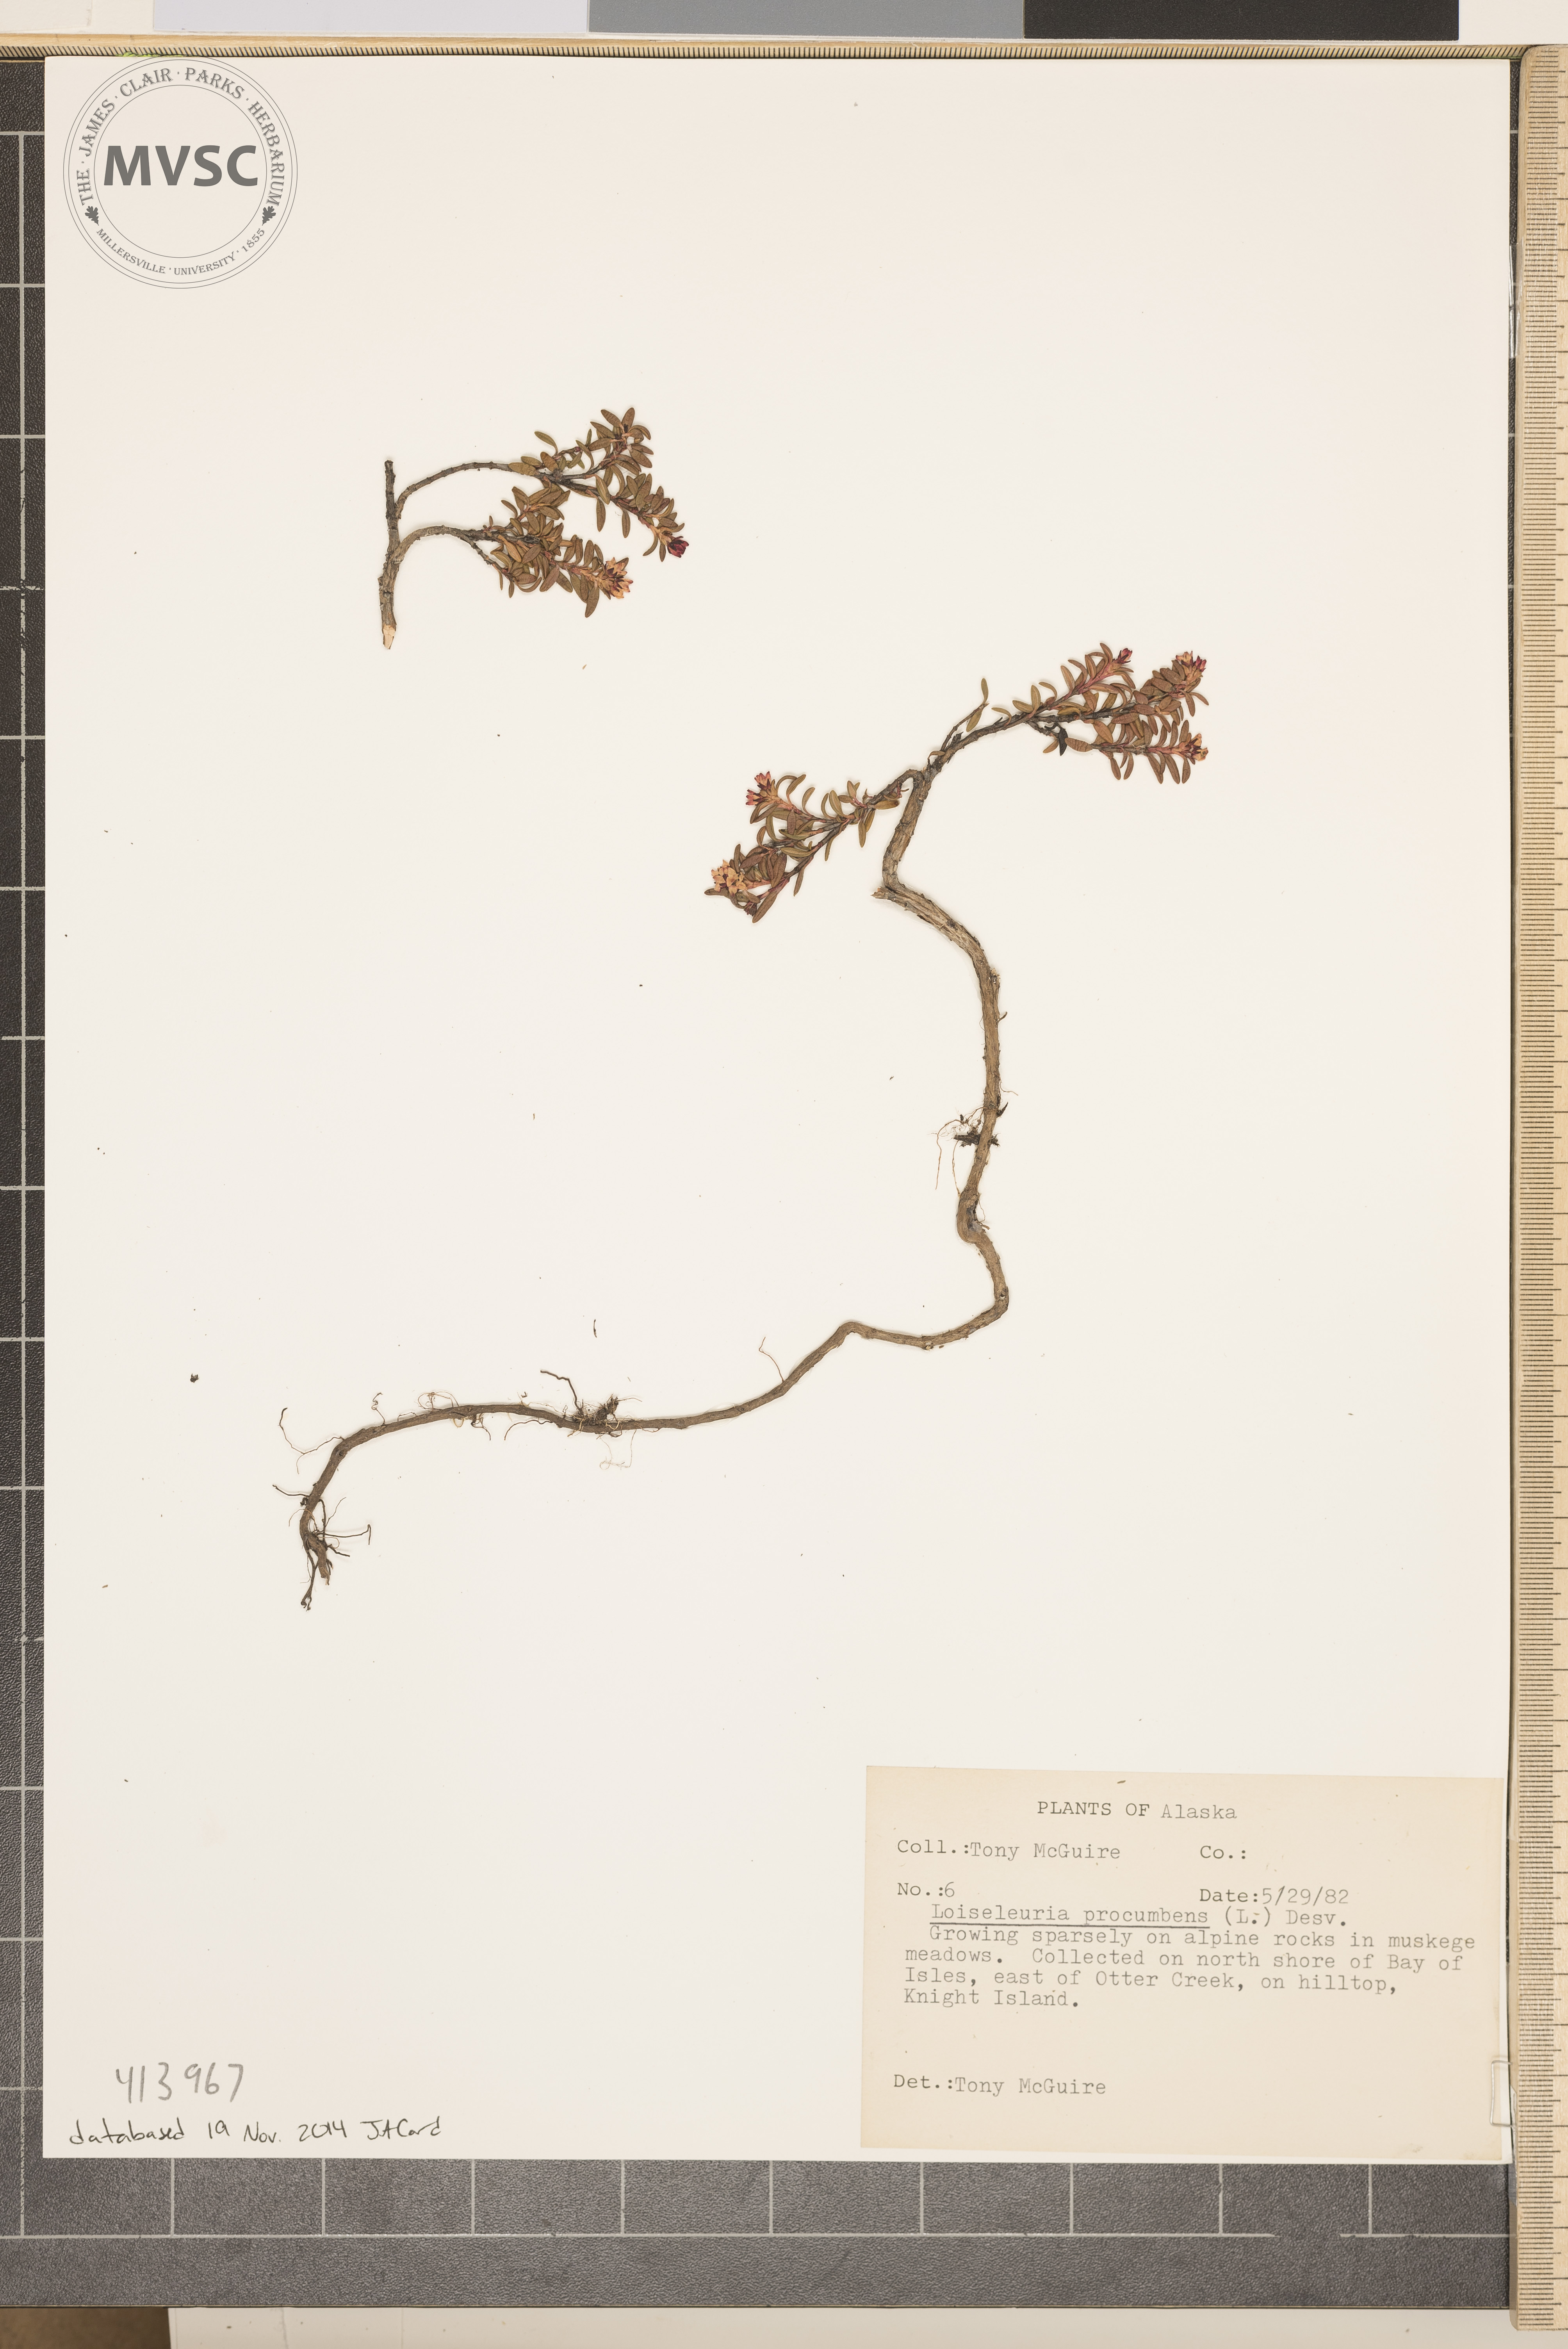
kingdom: Plantae
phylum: Tracheophyta
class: Magnoliopsida
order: Ericales
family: Ericaceae
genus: Kalmia
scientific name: Kalmia procumbens
